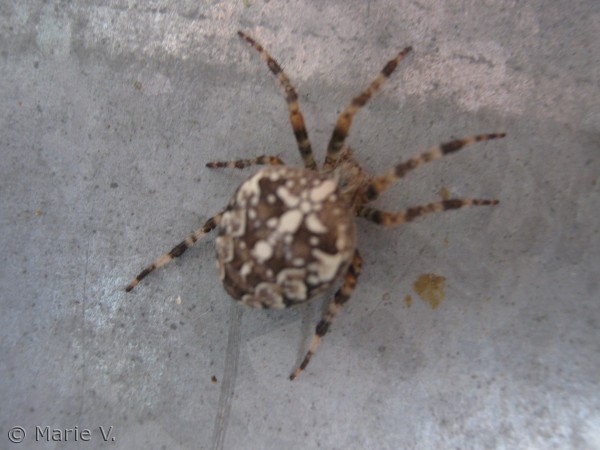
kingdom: Animalia
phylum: Arthropoda
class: Arachnida
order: Araneae
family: Araneidae
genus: Araneus
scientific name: Araneus diadematus
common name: Korsedderkop
